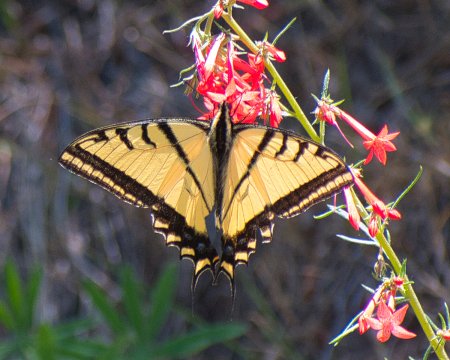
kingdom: Animalia
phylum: Arthropoda
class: Insecta
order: Lepidoptera
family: Papilionidae
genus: Papilio
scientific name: Papilio multicaudata
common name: Two-tailed Swallowtail
